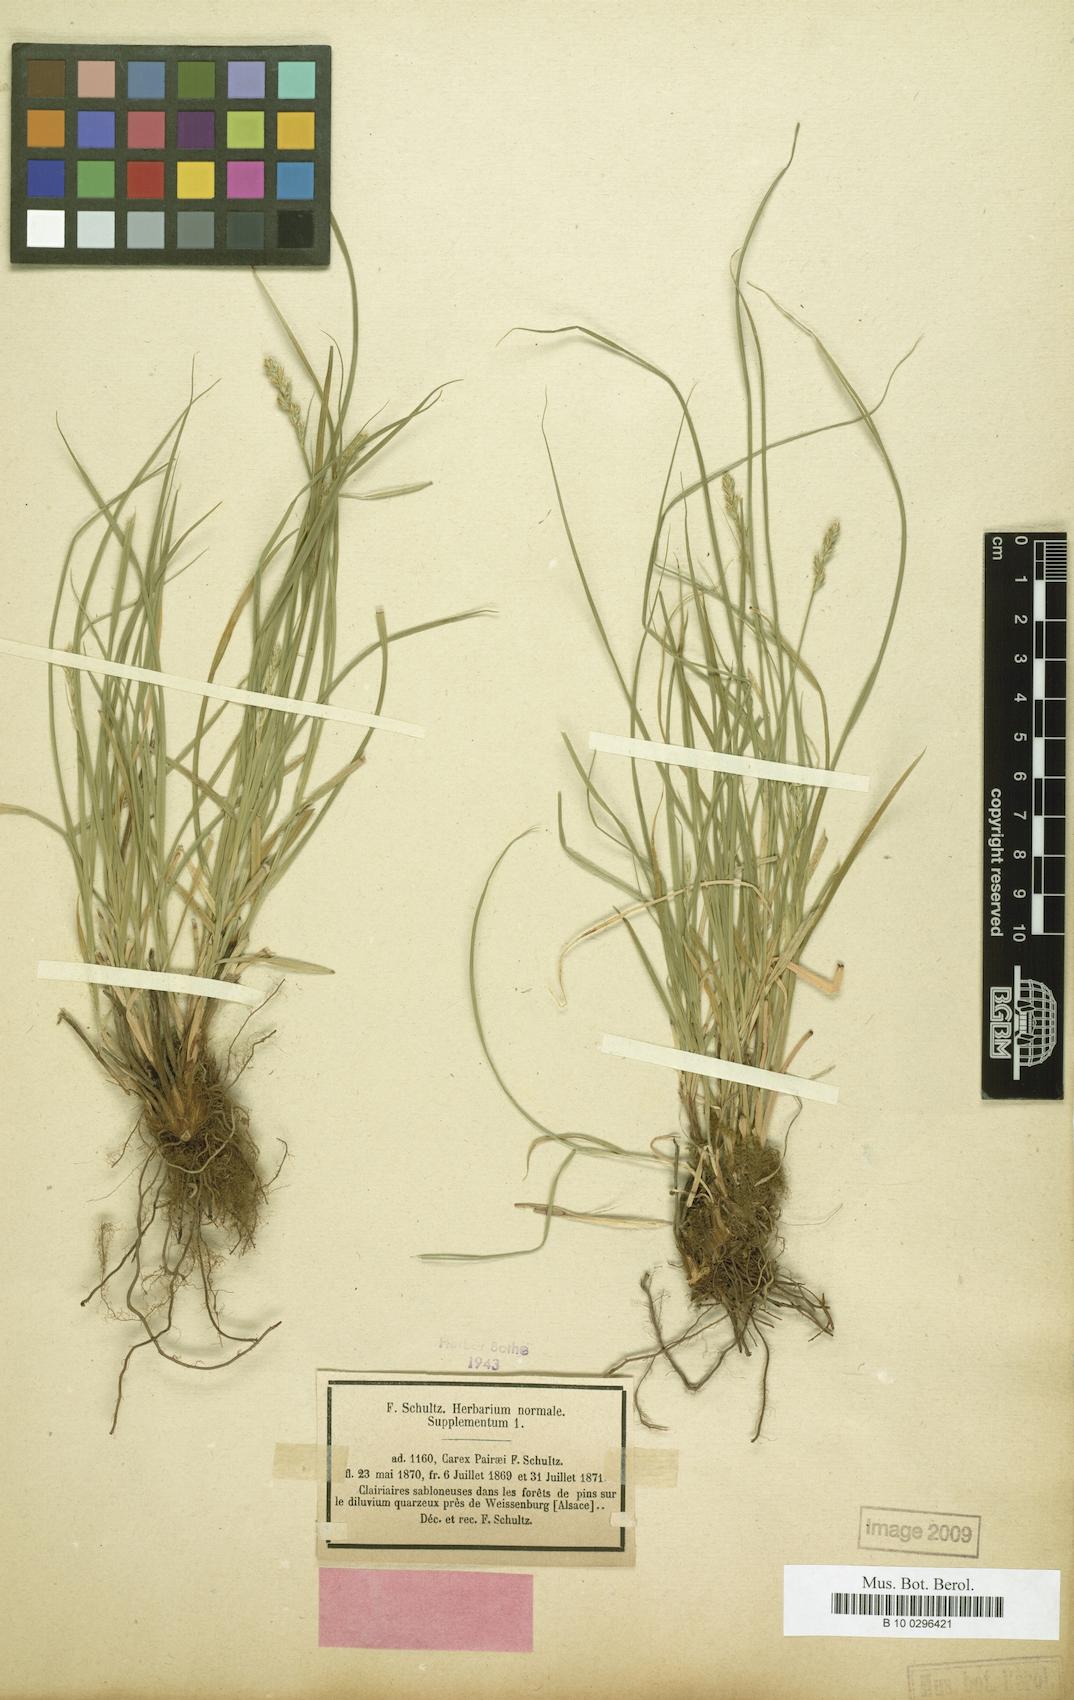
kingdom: Plantae
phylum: Tracheophyta
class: Liliopsida
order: Poales
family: Cyperaceae
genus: Carex
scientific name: Carex pairae
